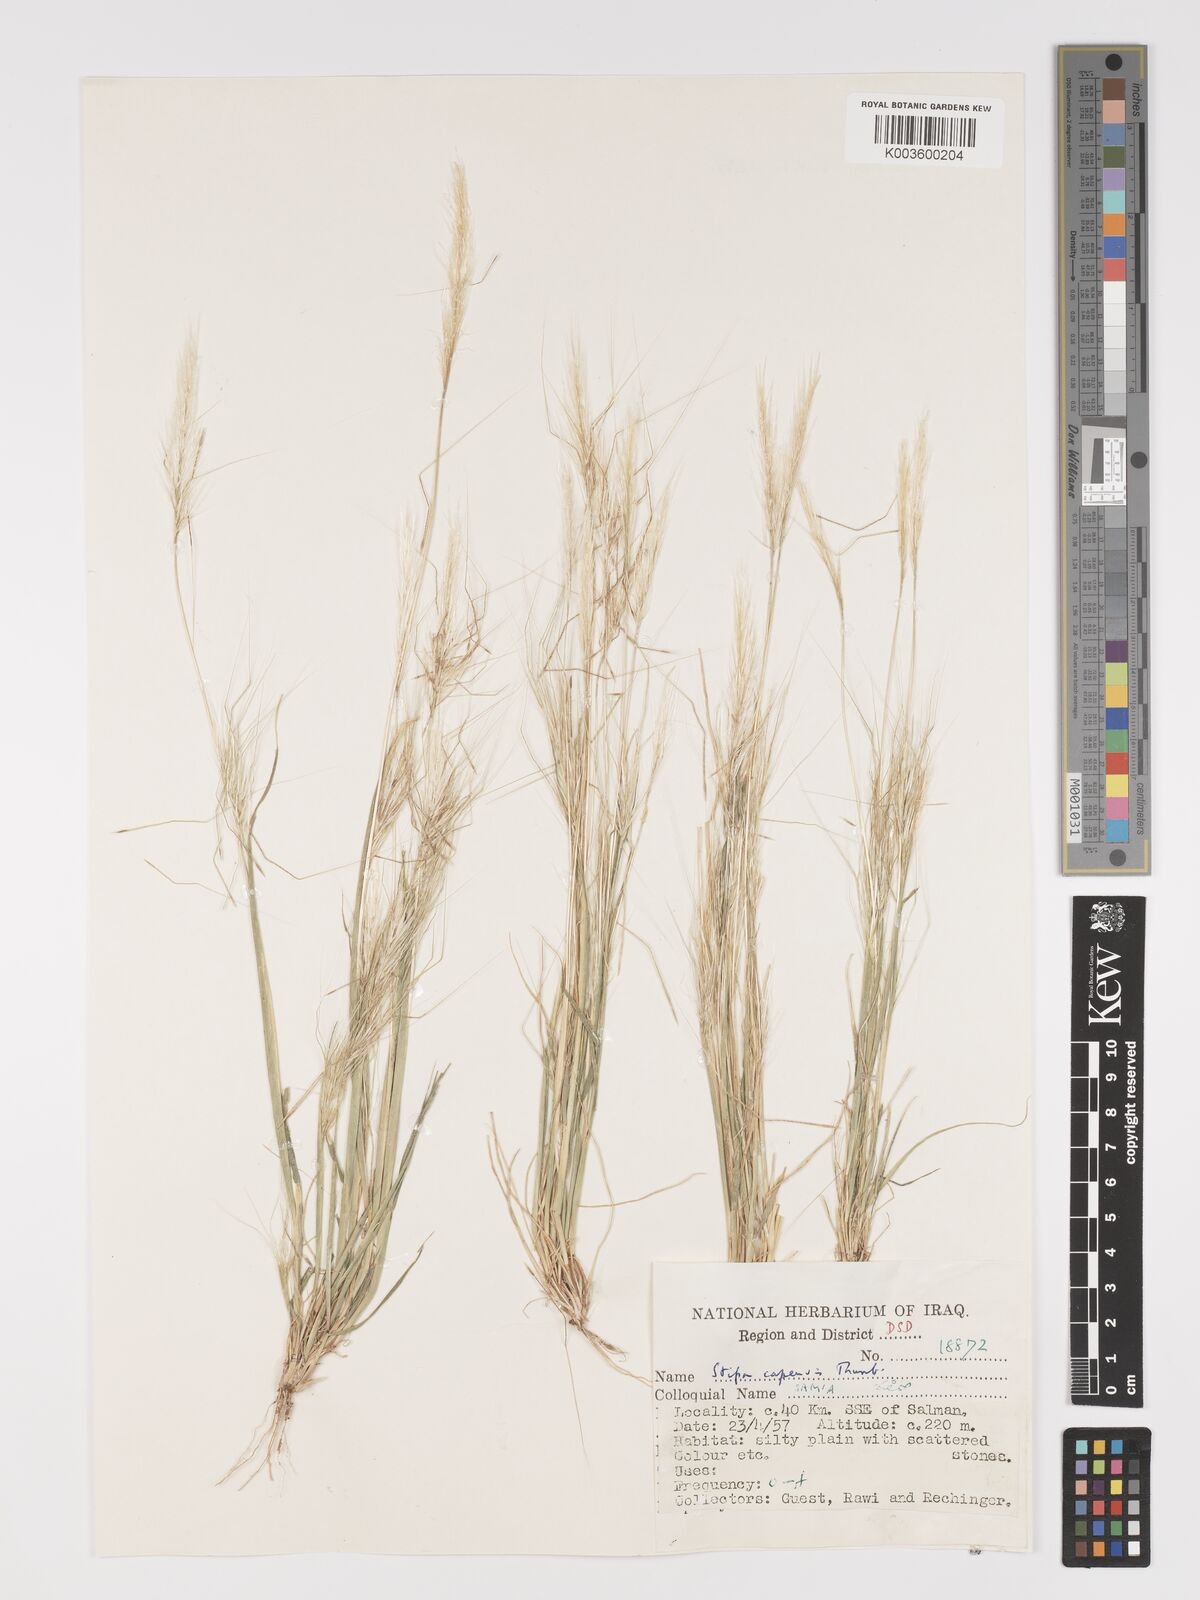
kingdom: Plantae
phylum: Tracheophyta
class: Liliopsida
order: Poales
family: Poaceae
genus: Stipellula
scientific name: Stipellula capensis
